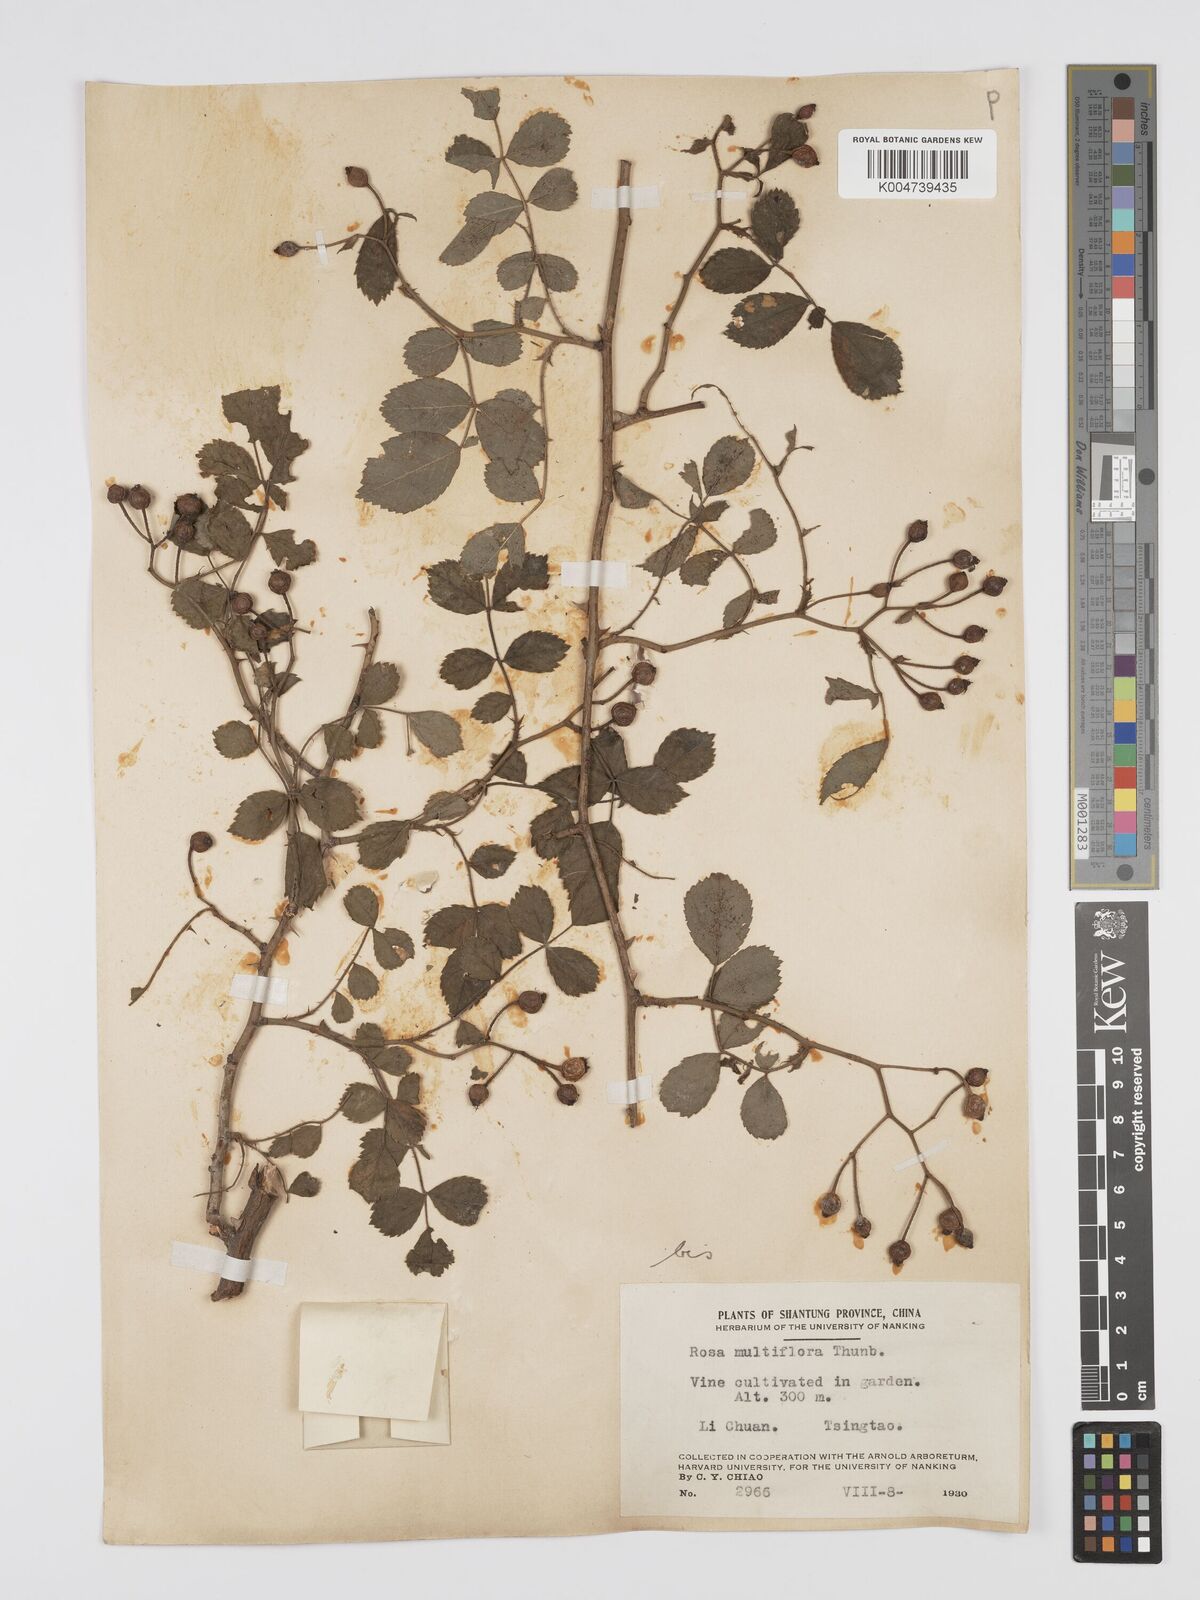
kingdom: Plantae
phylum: Tracheophyta
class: Magnoliopsida
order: Rosales
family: Rosaceae
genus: Rosa
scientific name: Rosa
